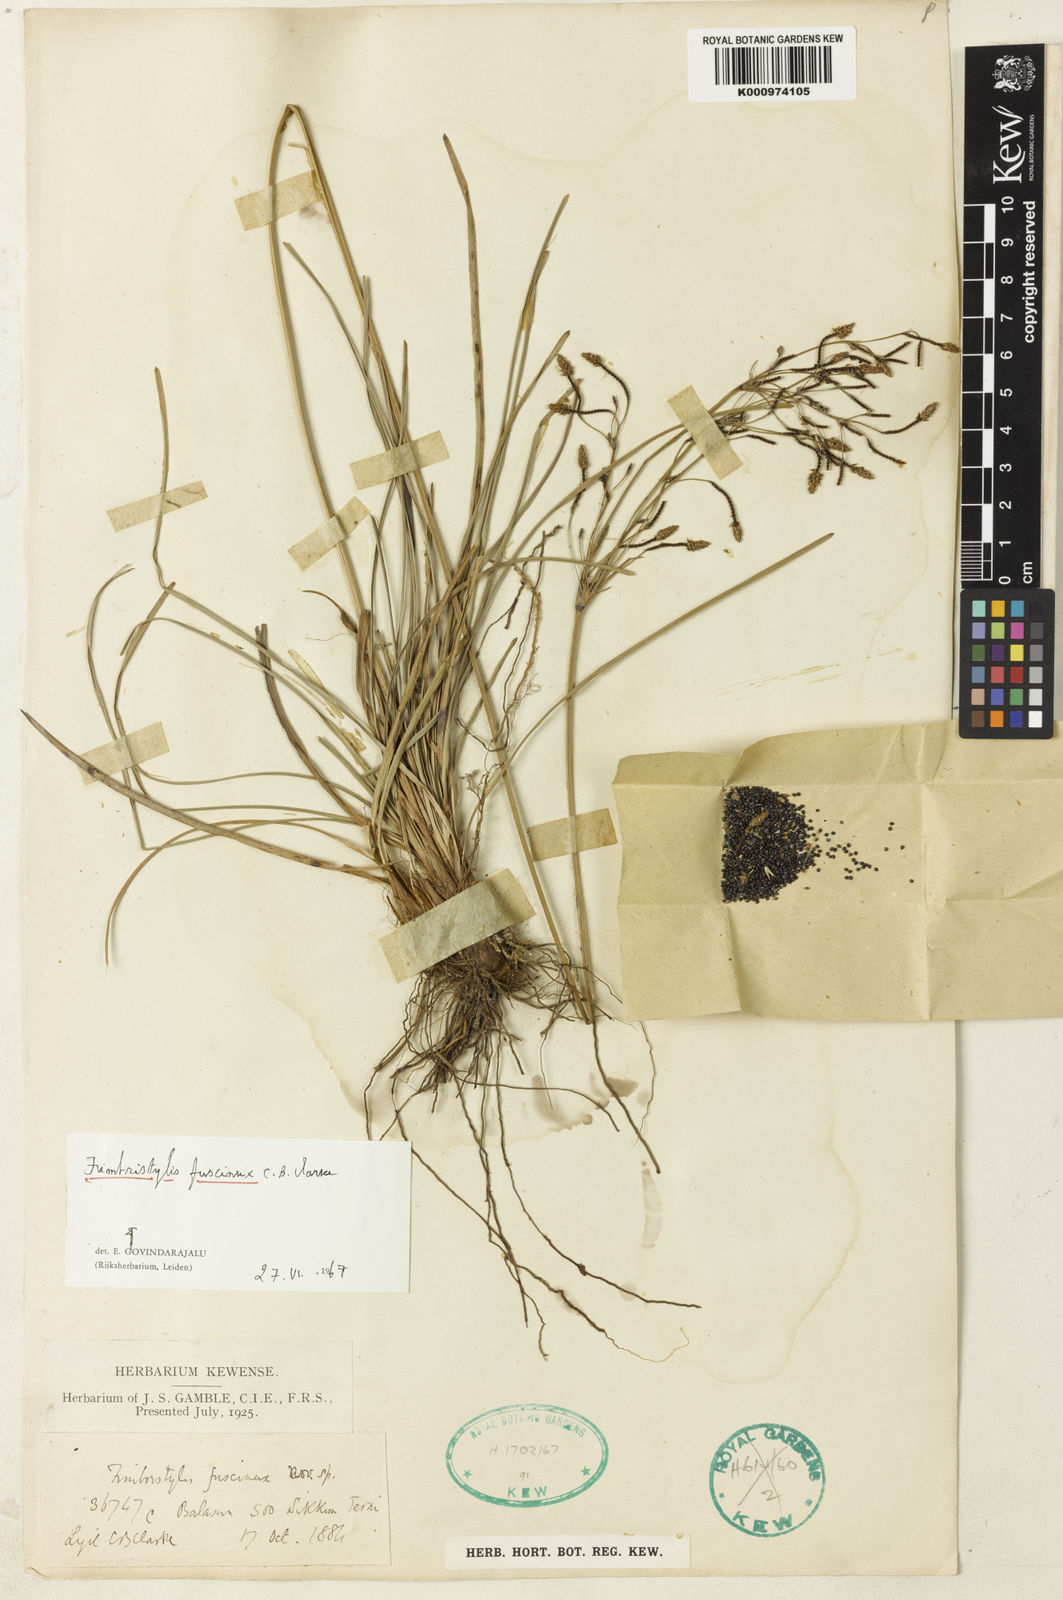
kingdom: Plantae
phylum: Tracheophyta
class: Liliopsida
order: Poales
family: Cyperaceae
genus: Fimbristylis
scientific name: Fimbristylis fuscinux
